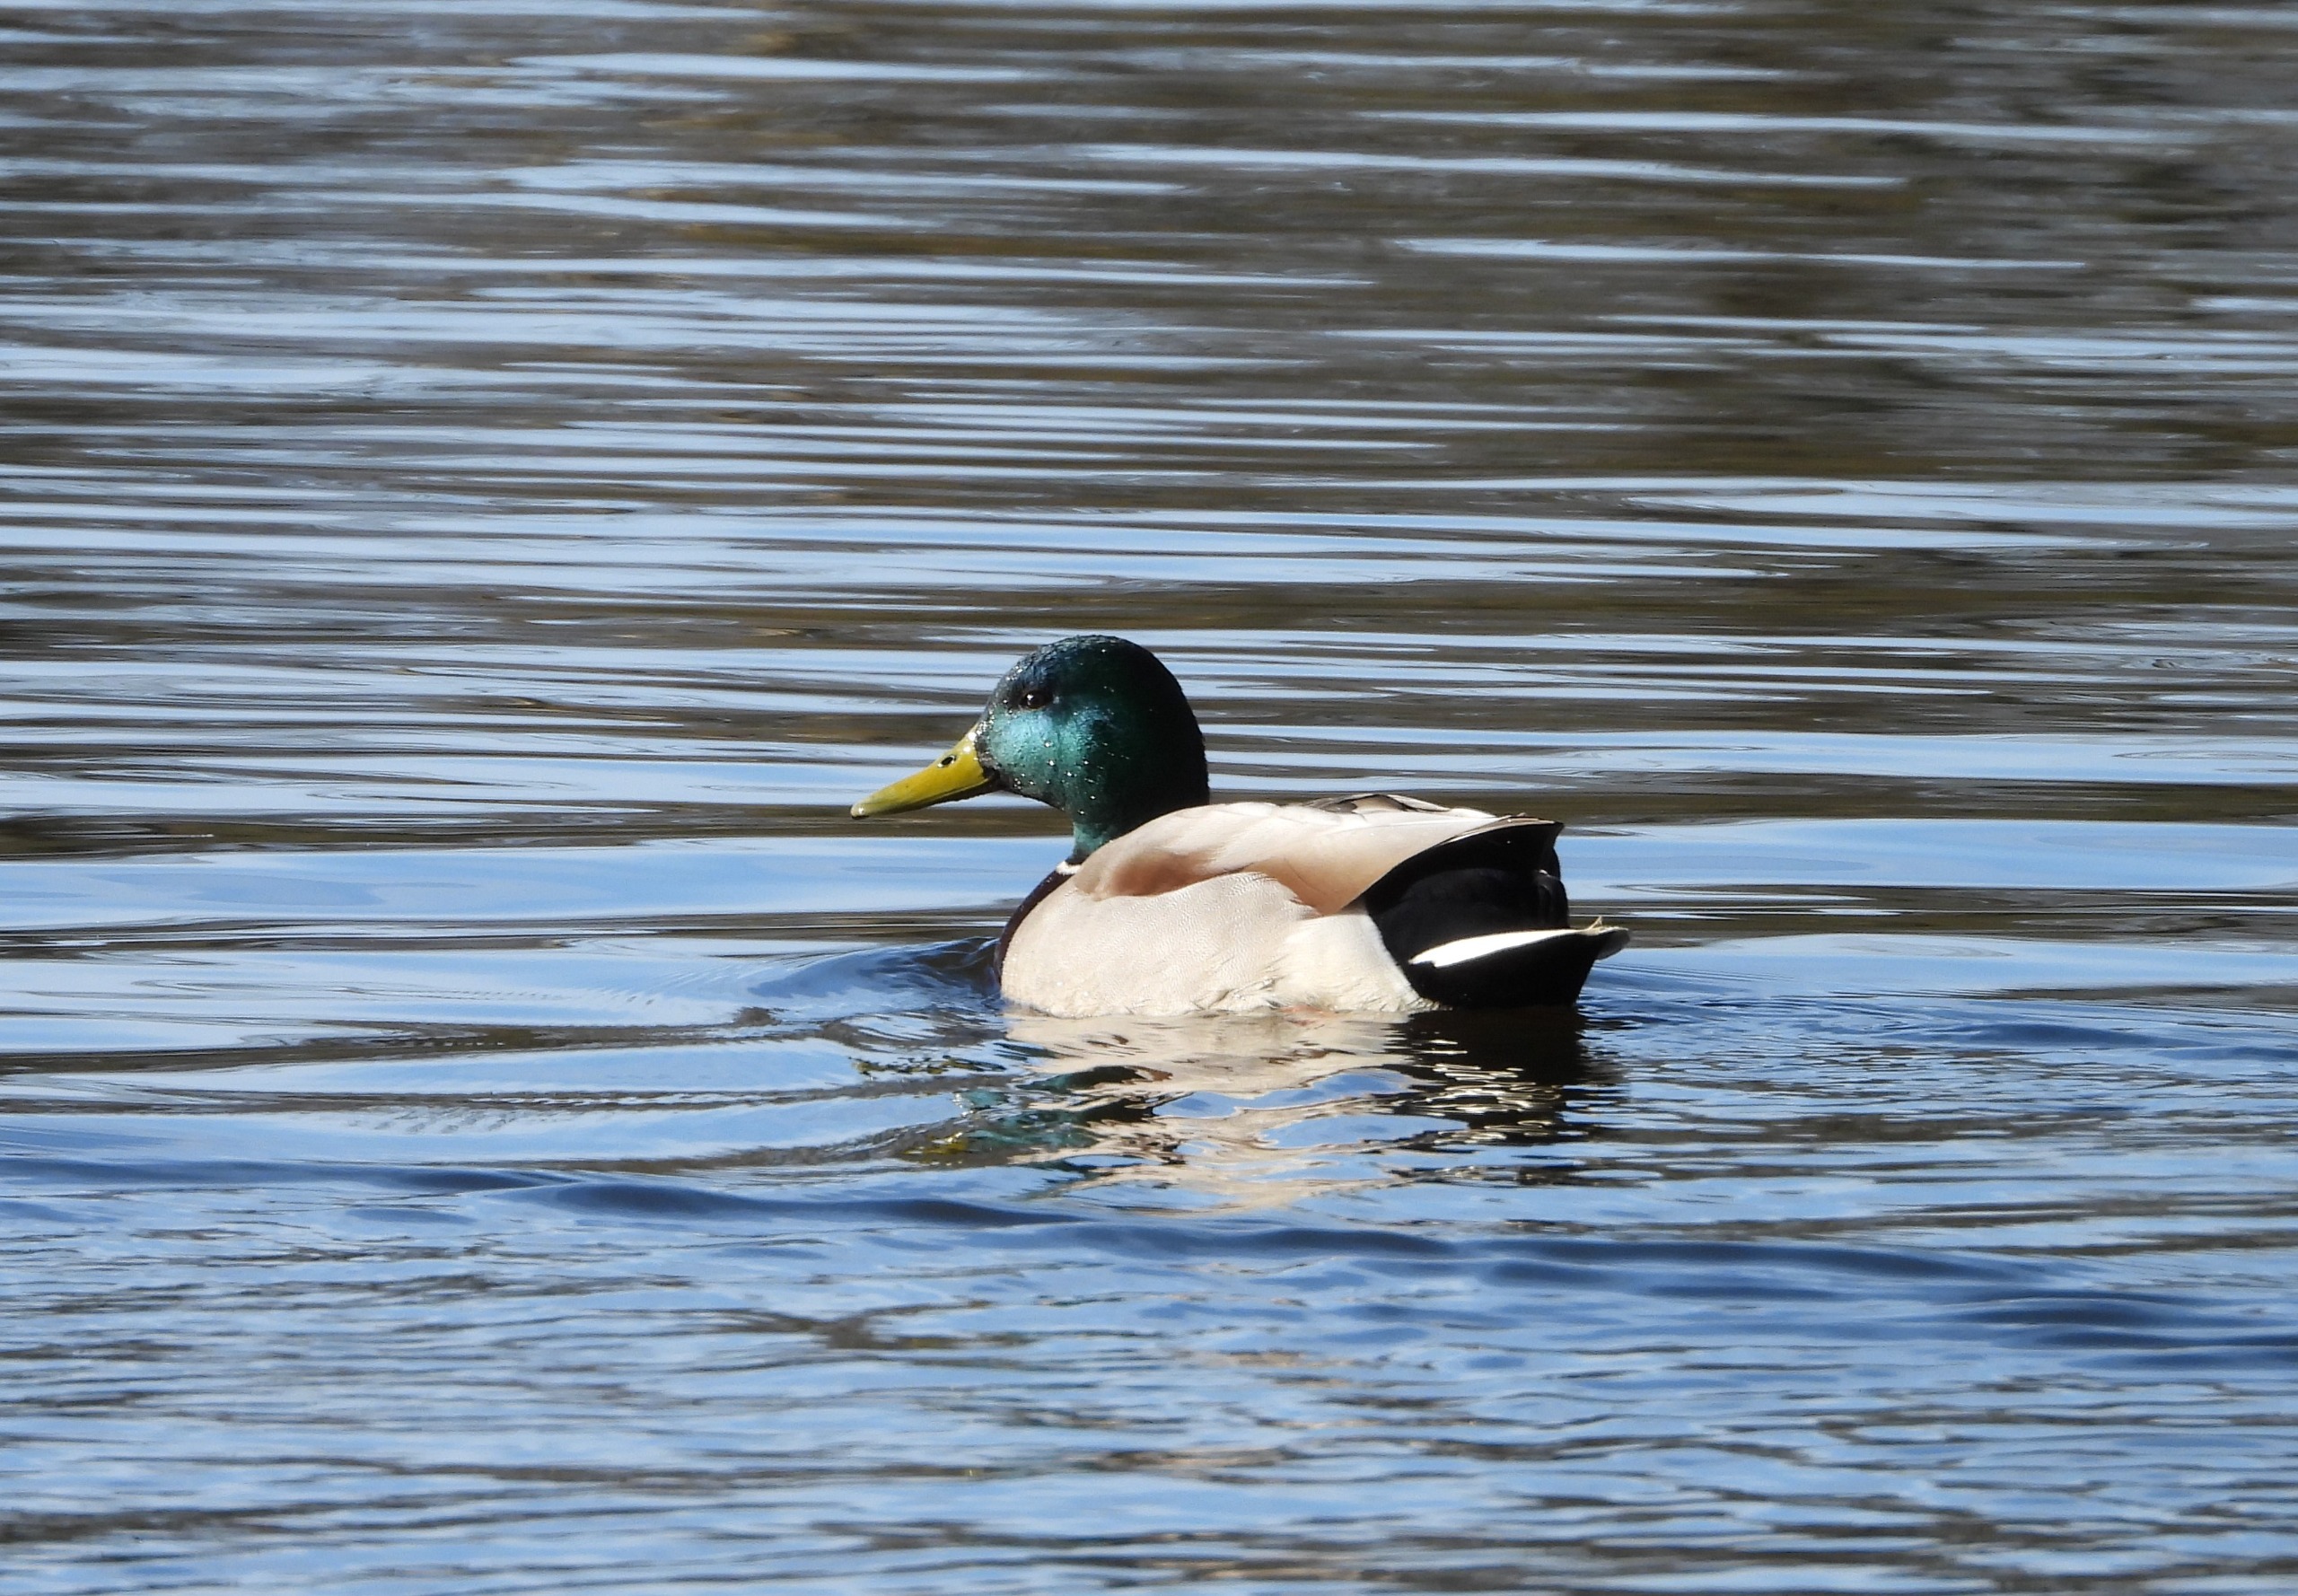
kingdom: Animalia
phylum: Chordata
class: Aves
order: Anseriformes
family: Anatidae
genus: Anas
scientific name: Anas platyrhynchos
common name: Gråand
